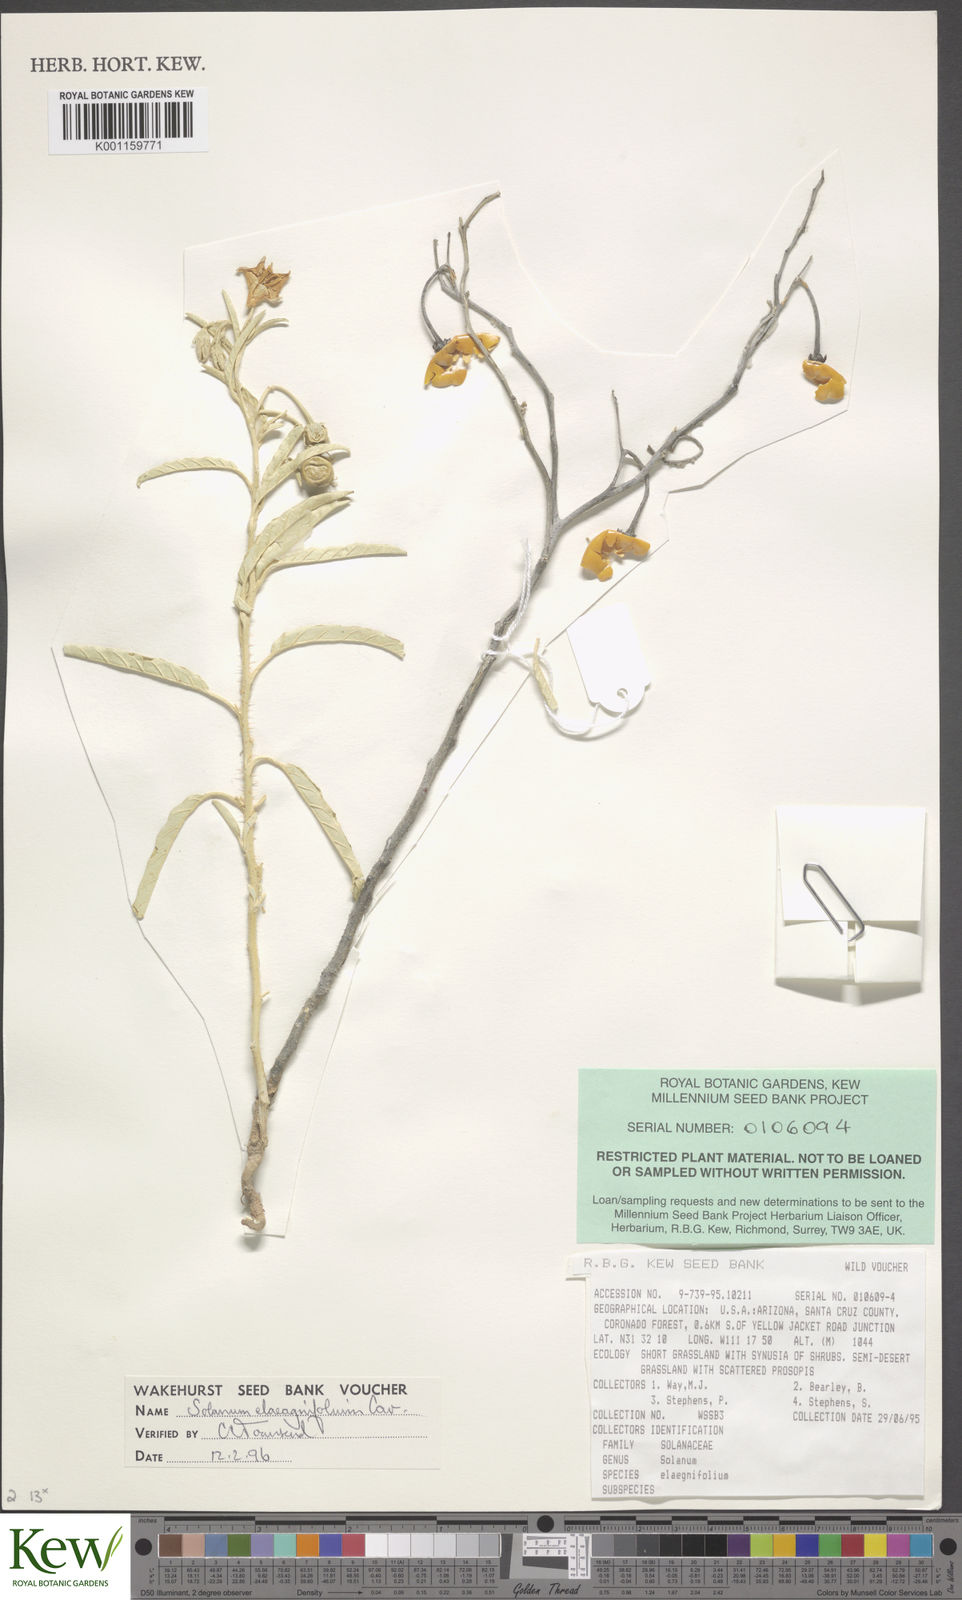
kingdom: Plantae
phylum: Tracheophyta
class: Magnoliopsida
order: Solanales
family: Solanaceae
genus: Solanum
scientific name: Solanum
